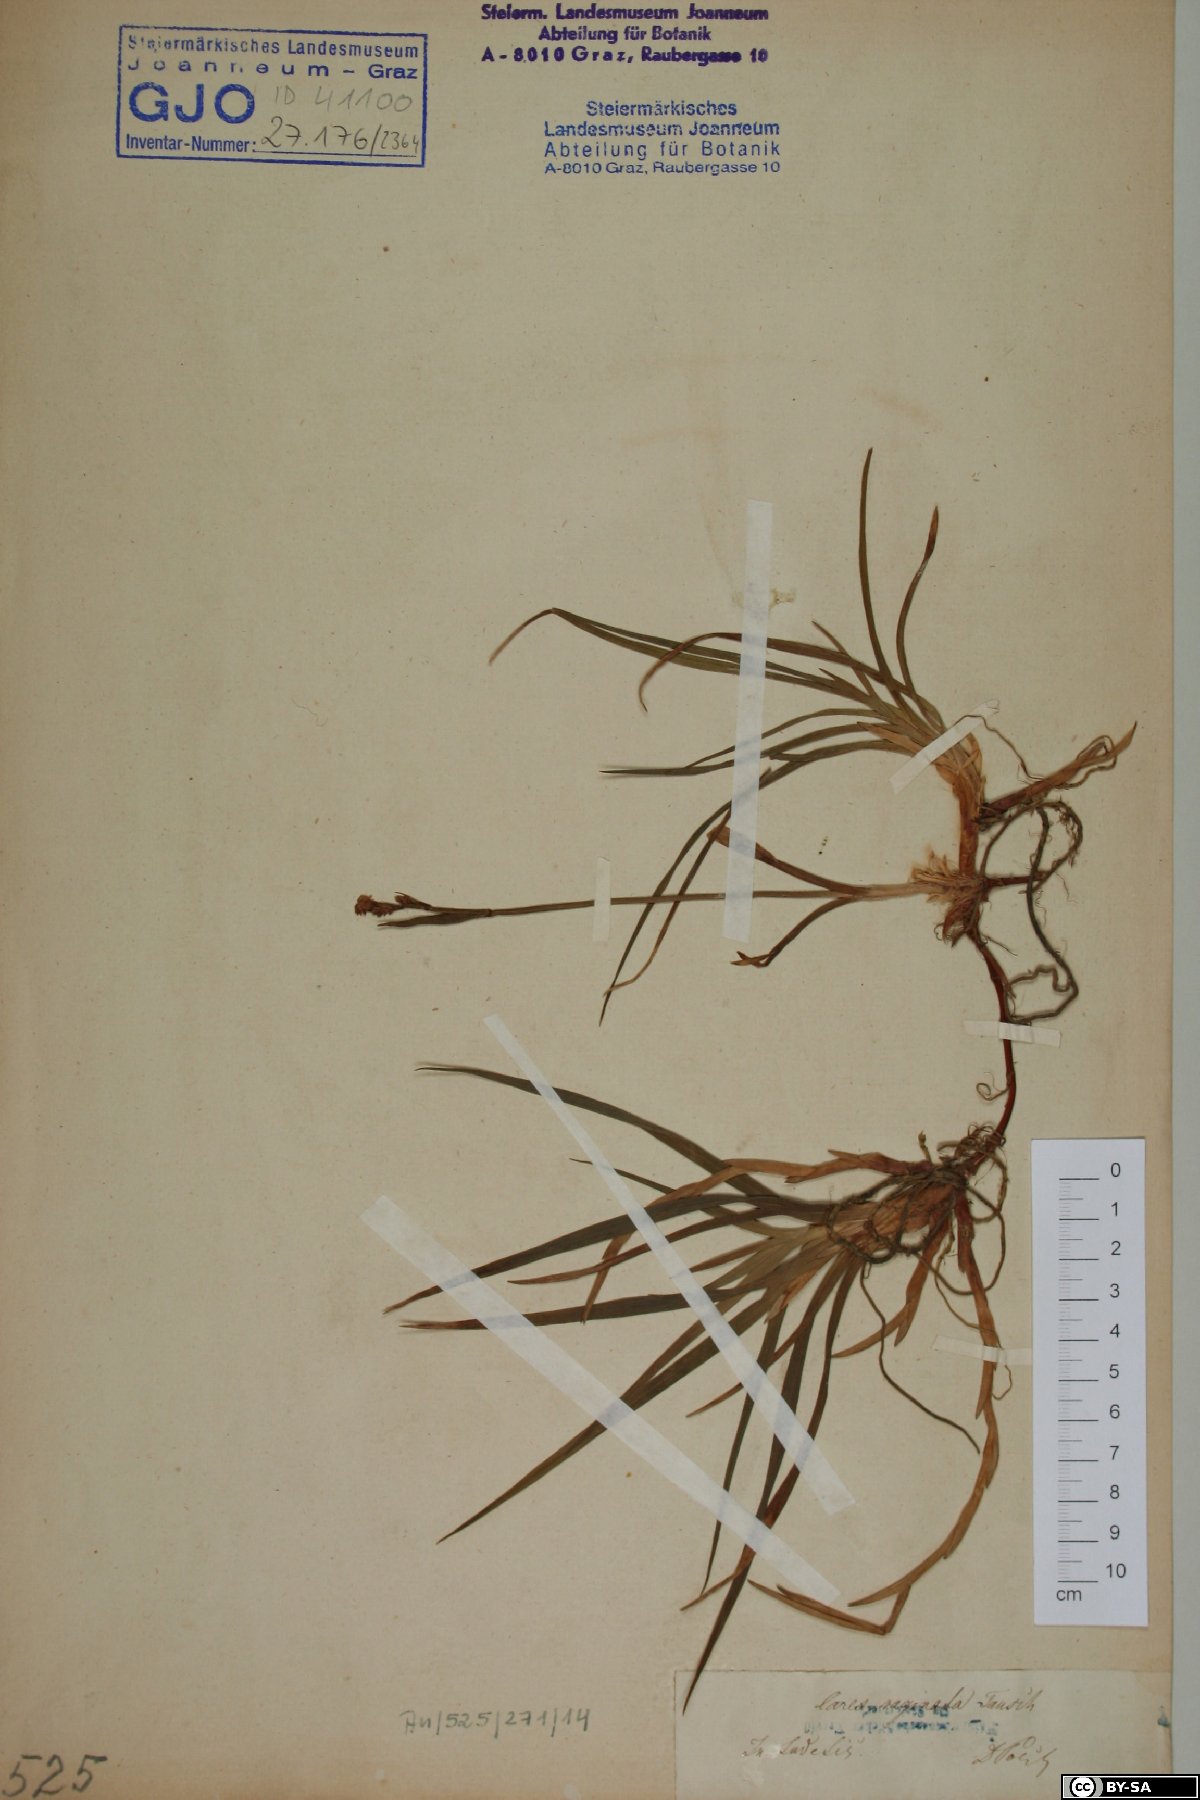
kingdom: Plantae
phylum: Tracheophyta
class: Liliopsida
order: Poales
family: Cyperaceae
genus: Carex
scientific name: Carex vaginata
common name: Sheathed sedge
